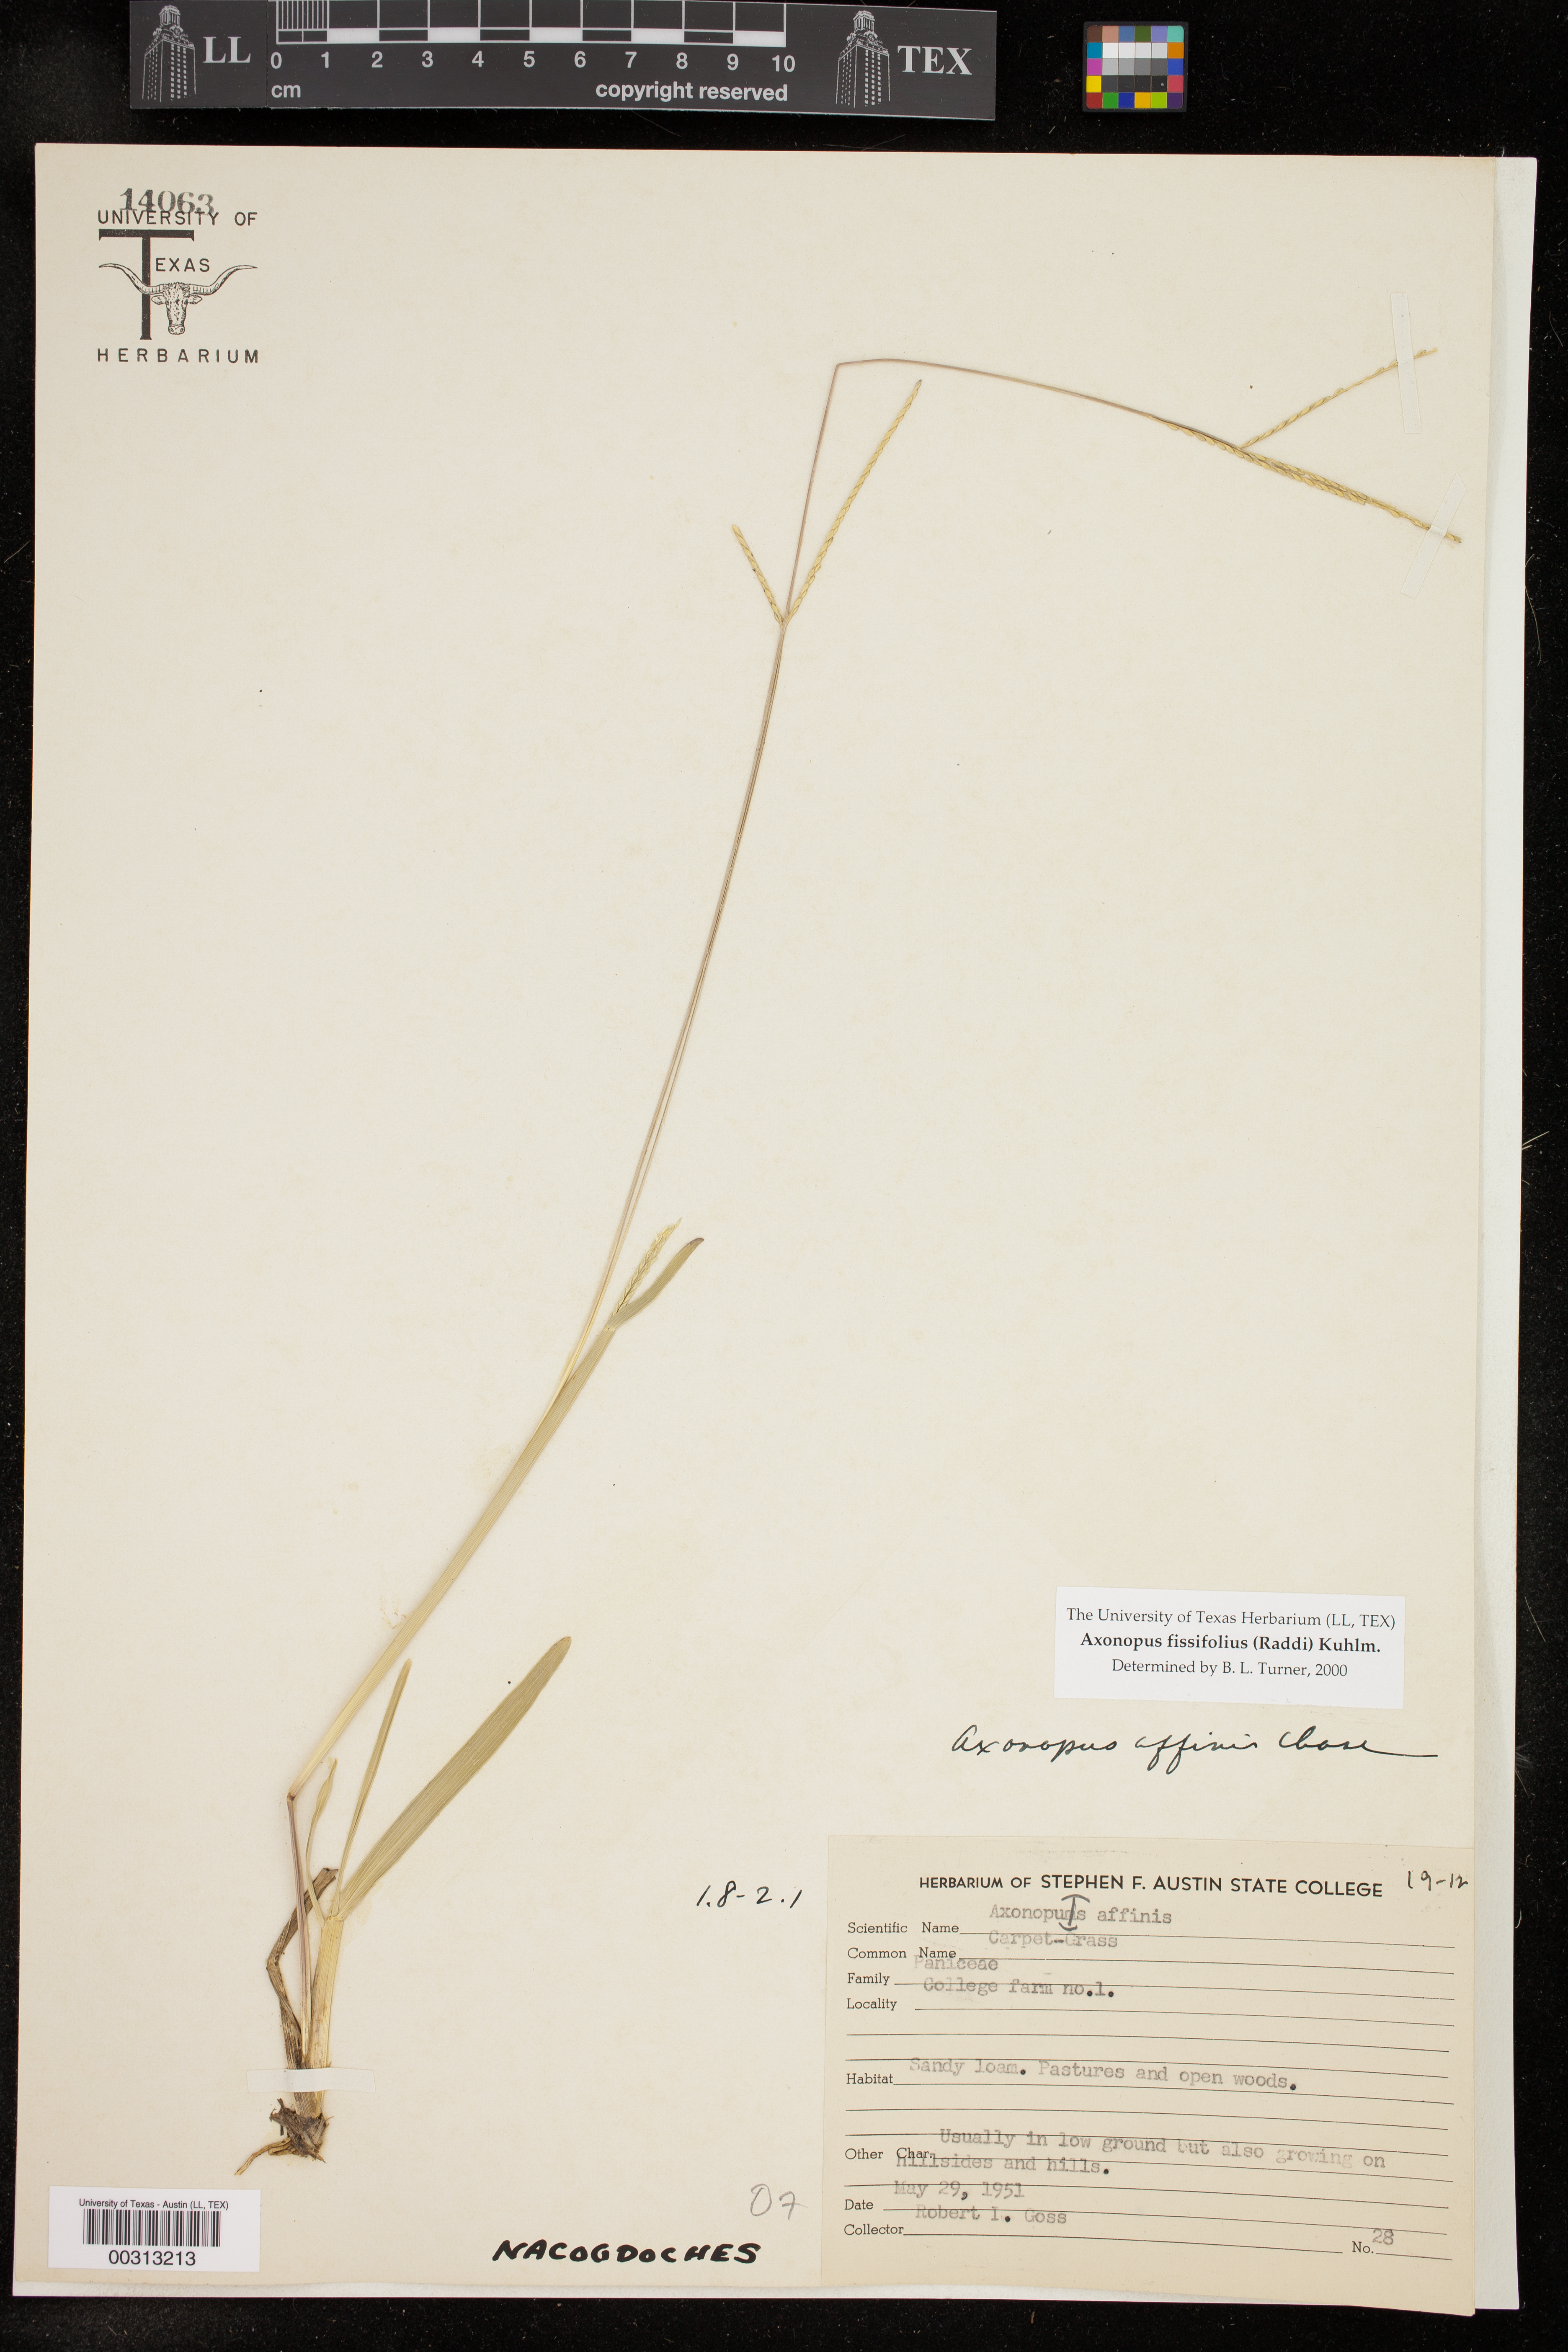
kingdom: Plantae
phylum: Tracheophyta
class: Liliopsida
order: Poales
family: Poaceae
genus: Axonopus
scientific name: Axonopus fissifolius
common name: Common carpetgrass
